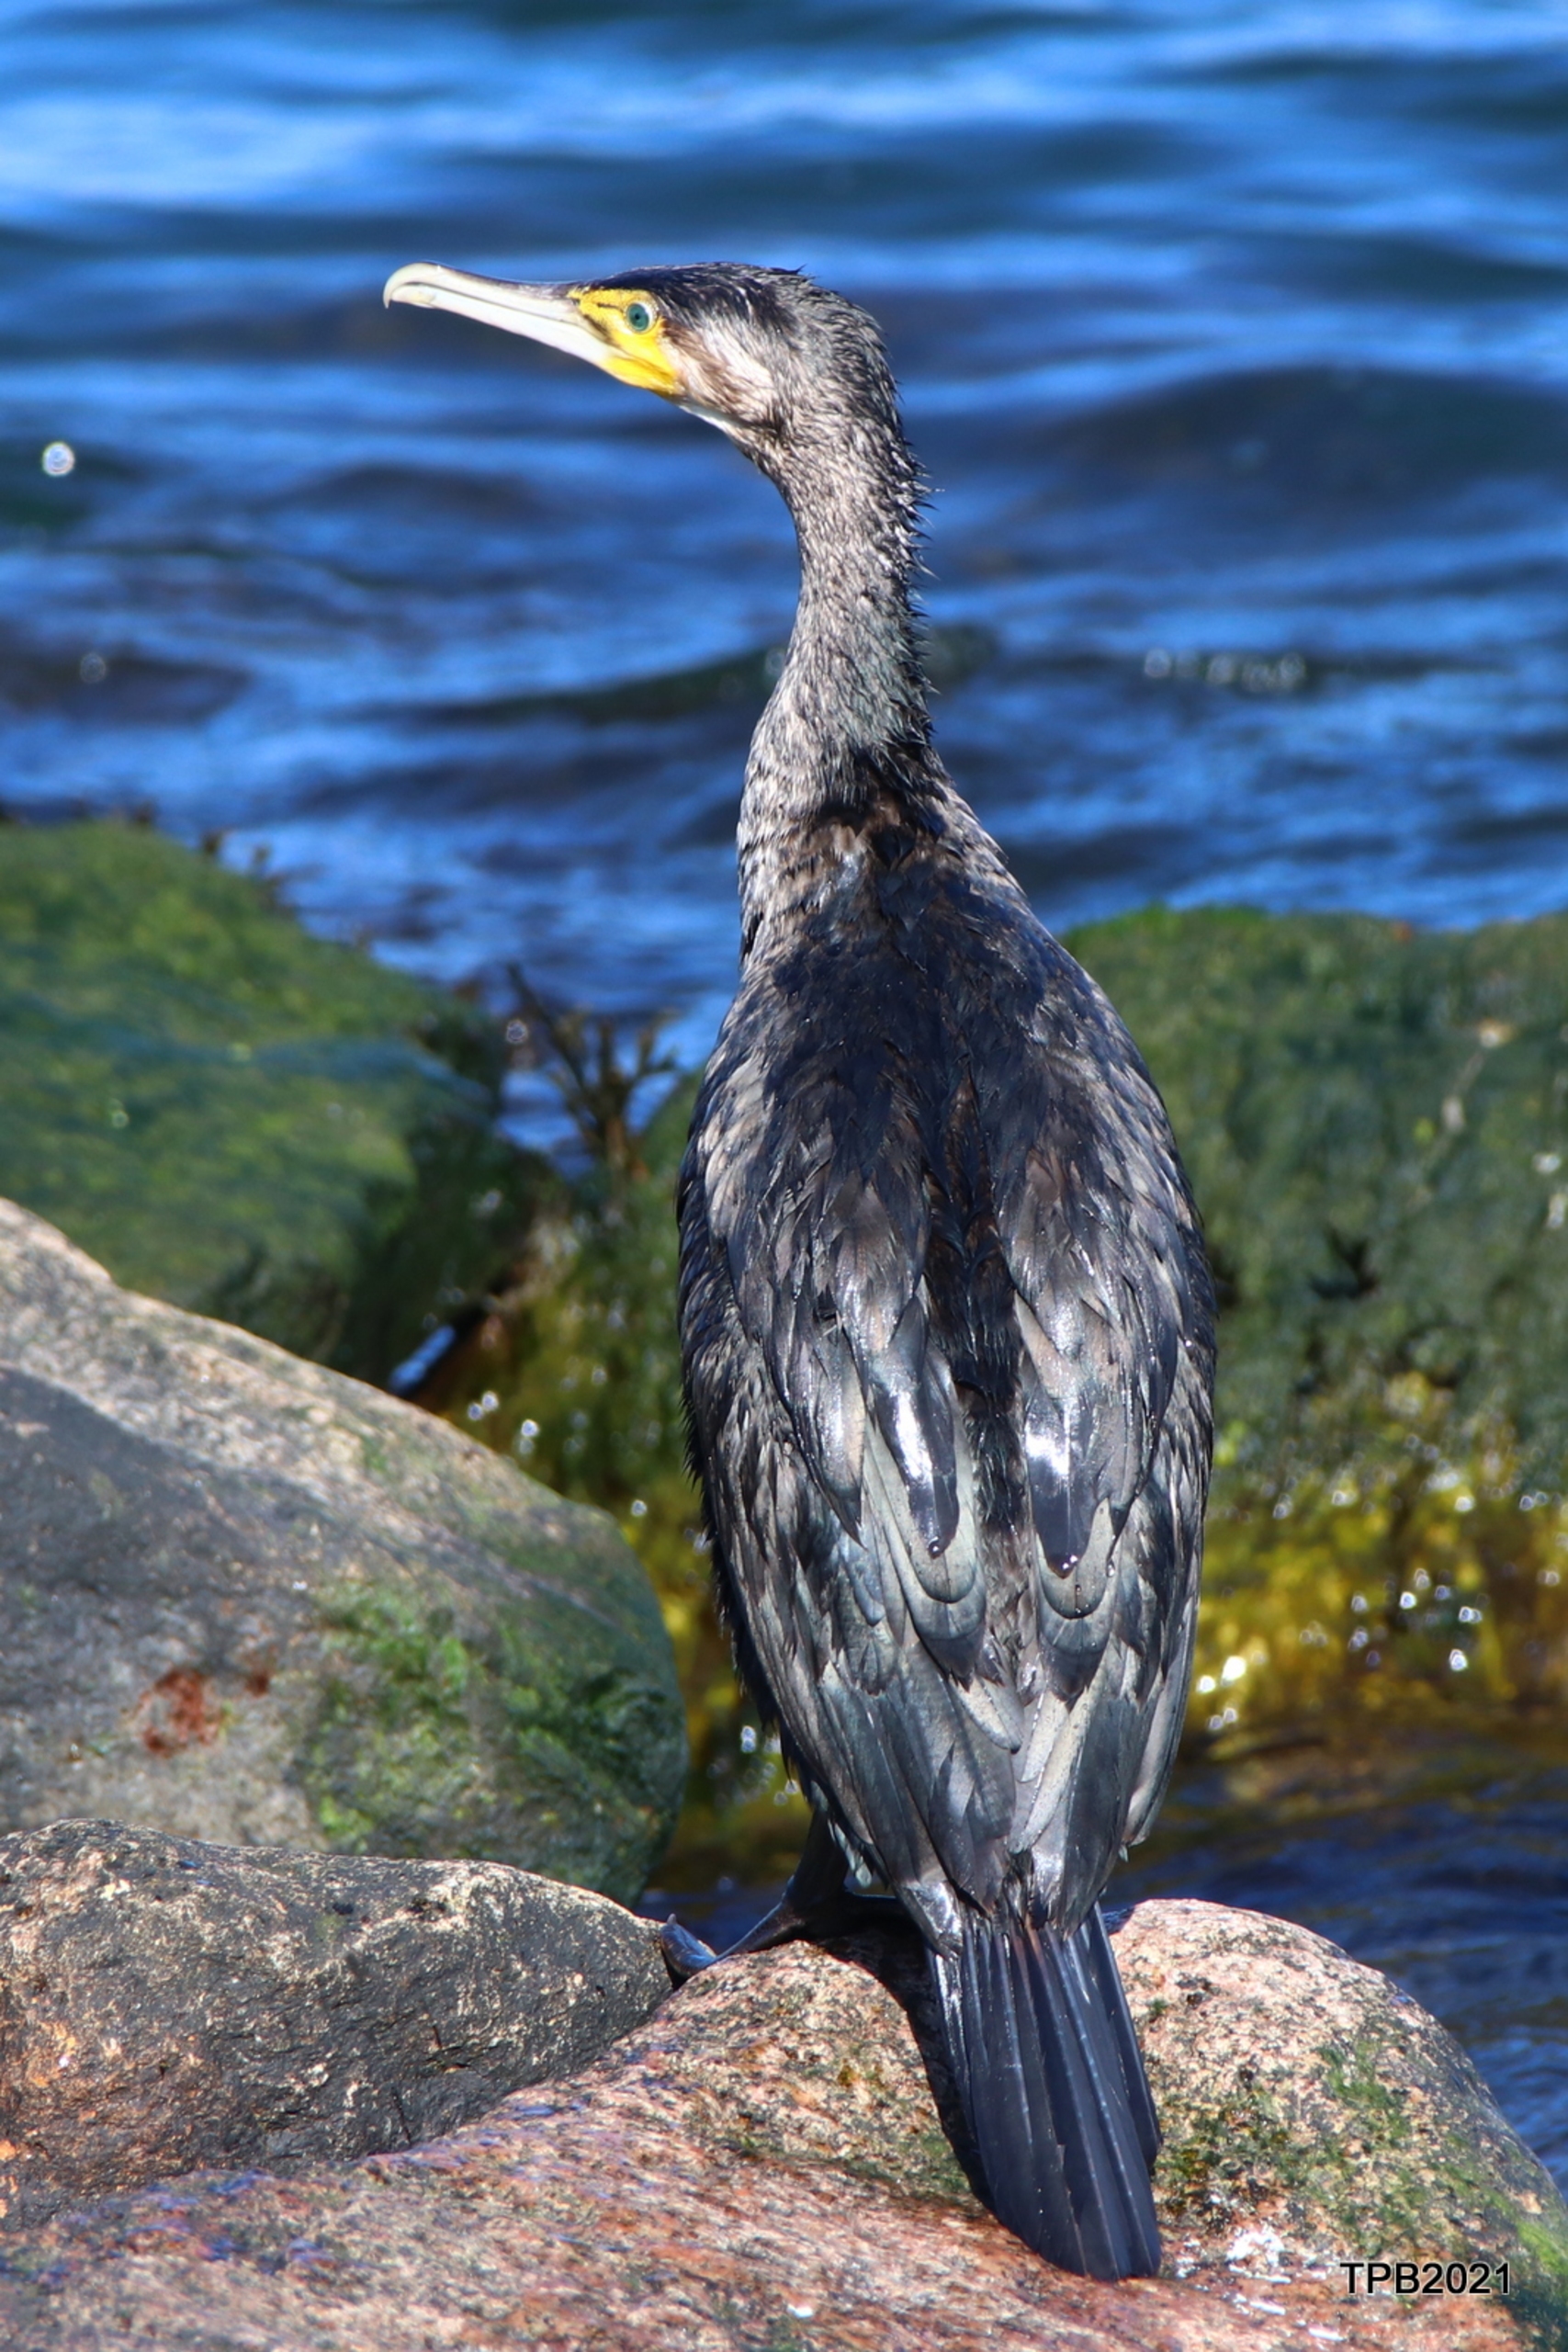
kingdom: Animalia
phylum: Chordata
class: Aves
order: Suliformes
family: Phalacrocoracidae
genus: Phalacrocorax
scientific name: Phalacrocorax carbo
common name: Skarv
